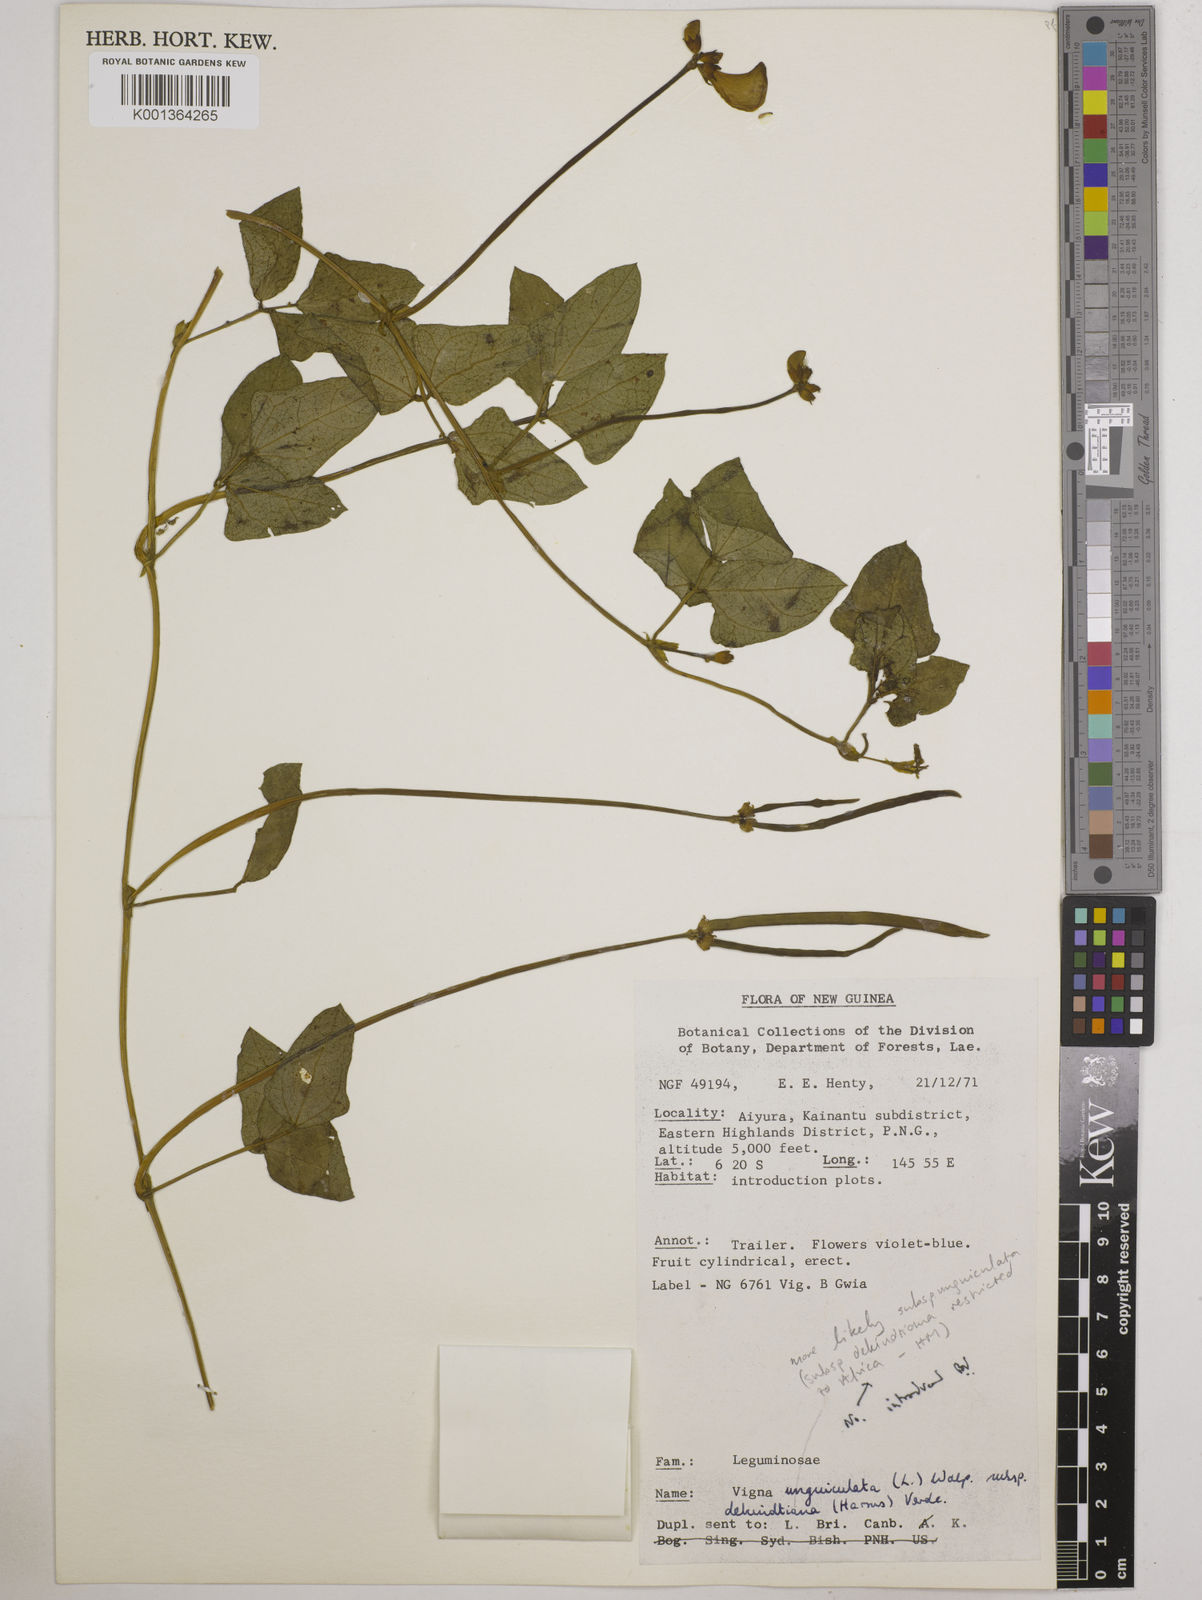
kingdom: Plantae
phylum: Tracheophyta
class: Magnoliopsida
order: Fabales
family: Fabaceae
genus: Vigna
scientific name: Vigna
